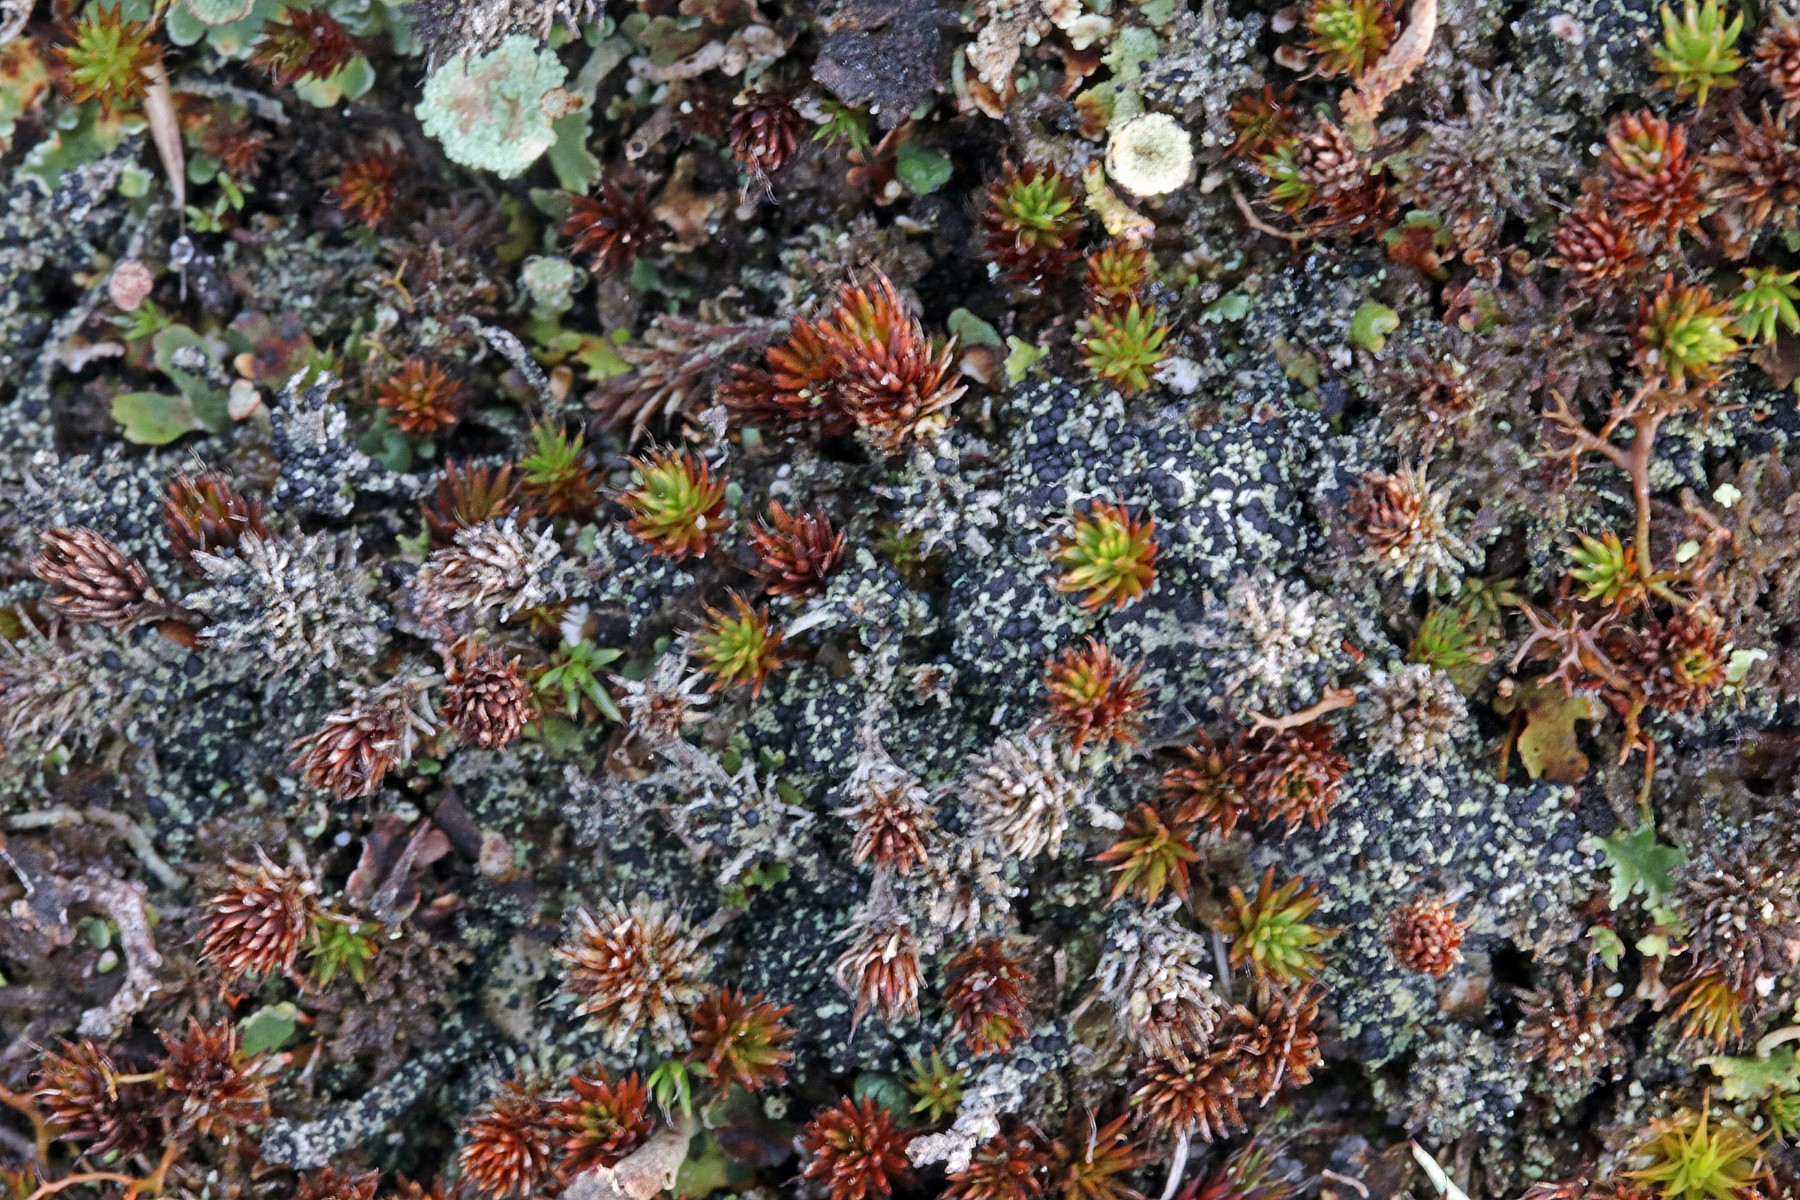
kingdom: Fungi
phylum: Ascomycota
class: Lecanoromycetes
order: Lecanorales
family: Byssolomataceae
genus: Micarea
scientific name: Micarea lignaria
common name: tørve-knaplav
